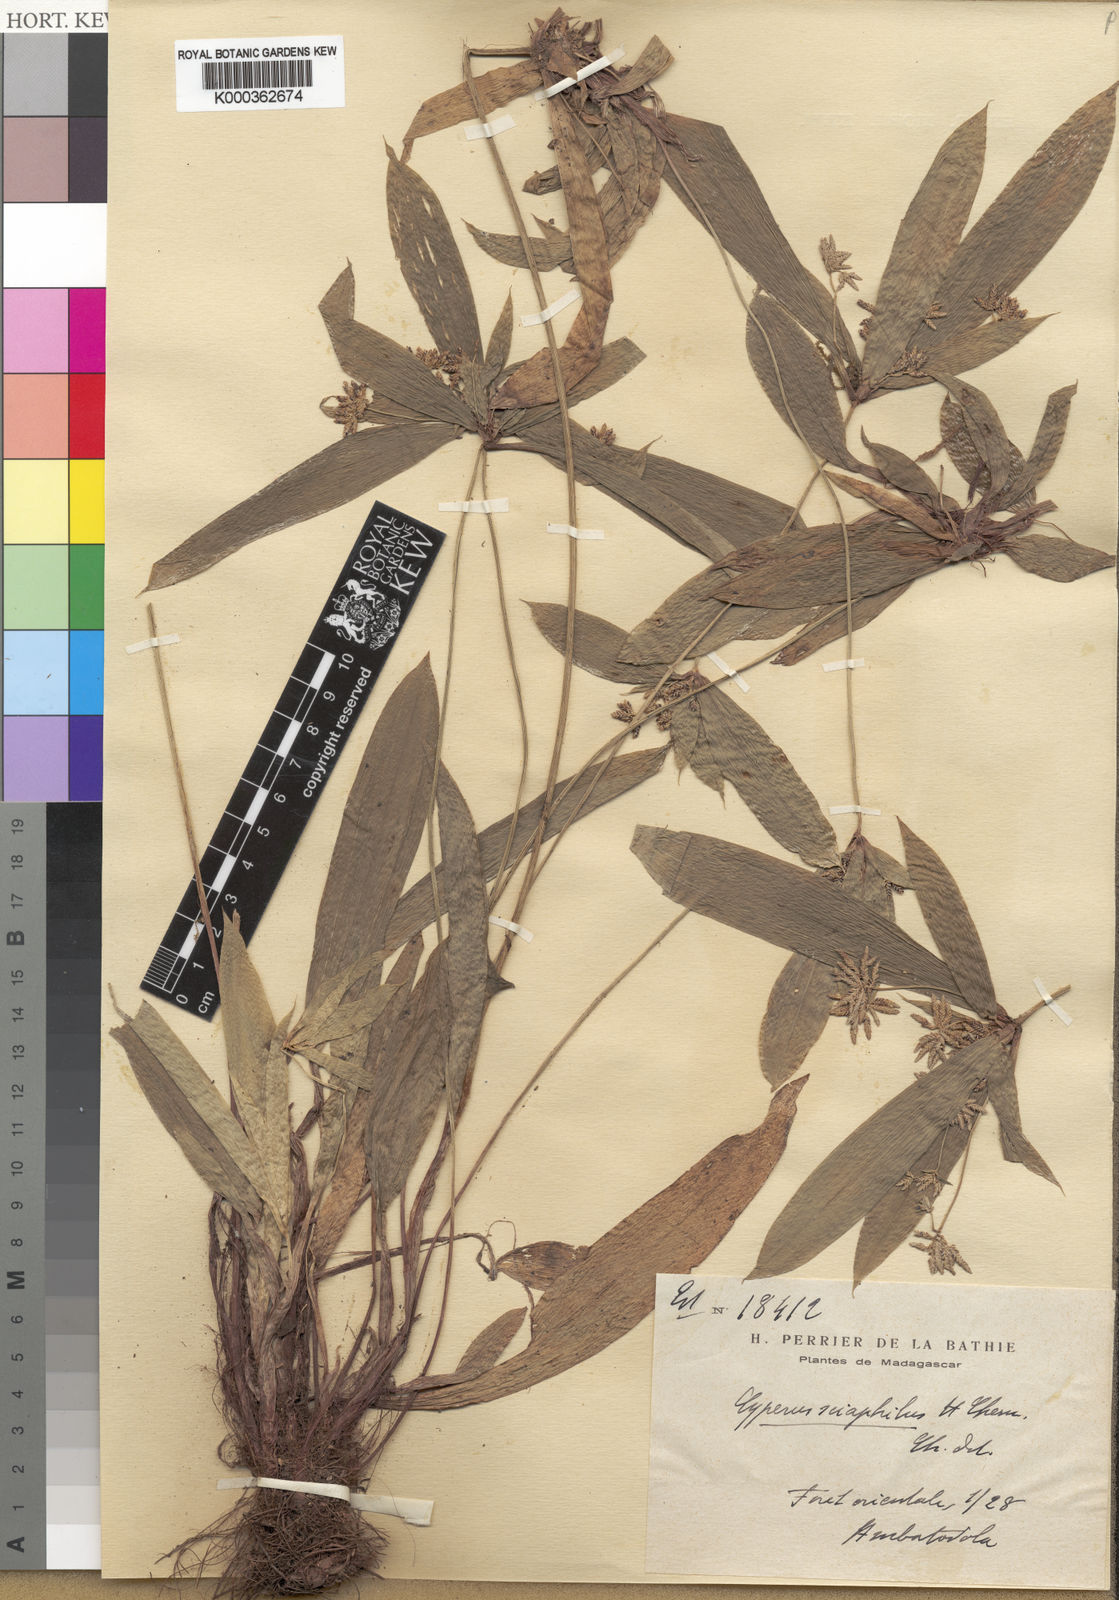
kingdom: Plantae
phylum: Tracheophyta
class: Liliopsida
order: Poales
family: Cyperaceae
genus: Cyperus
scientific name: Cyperus sciaphilus
